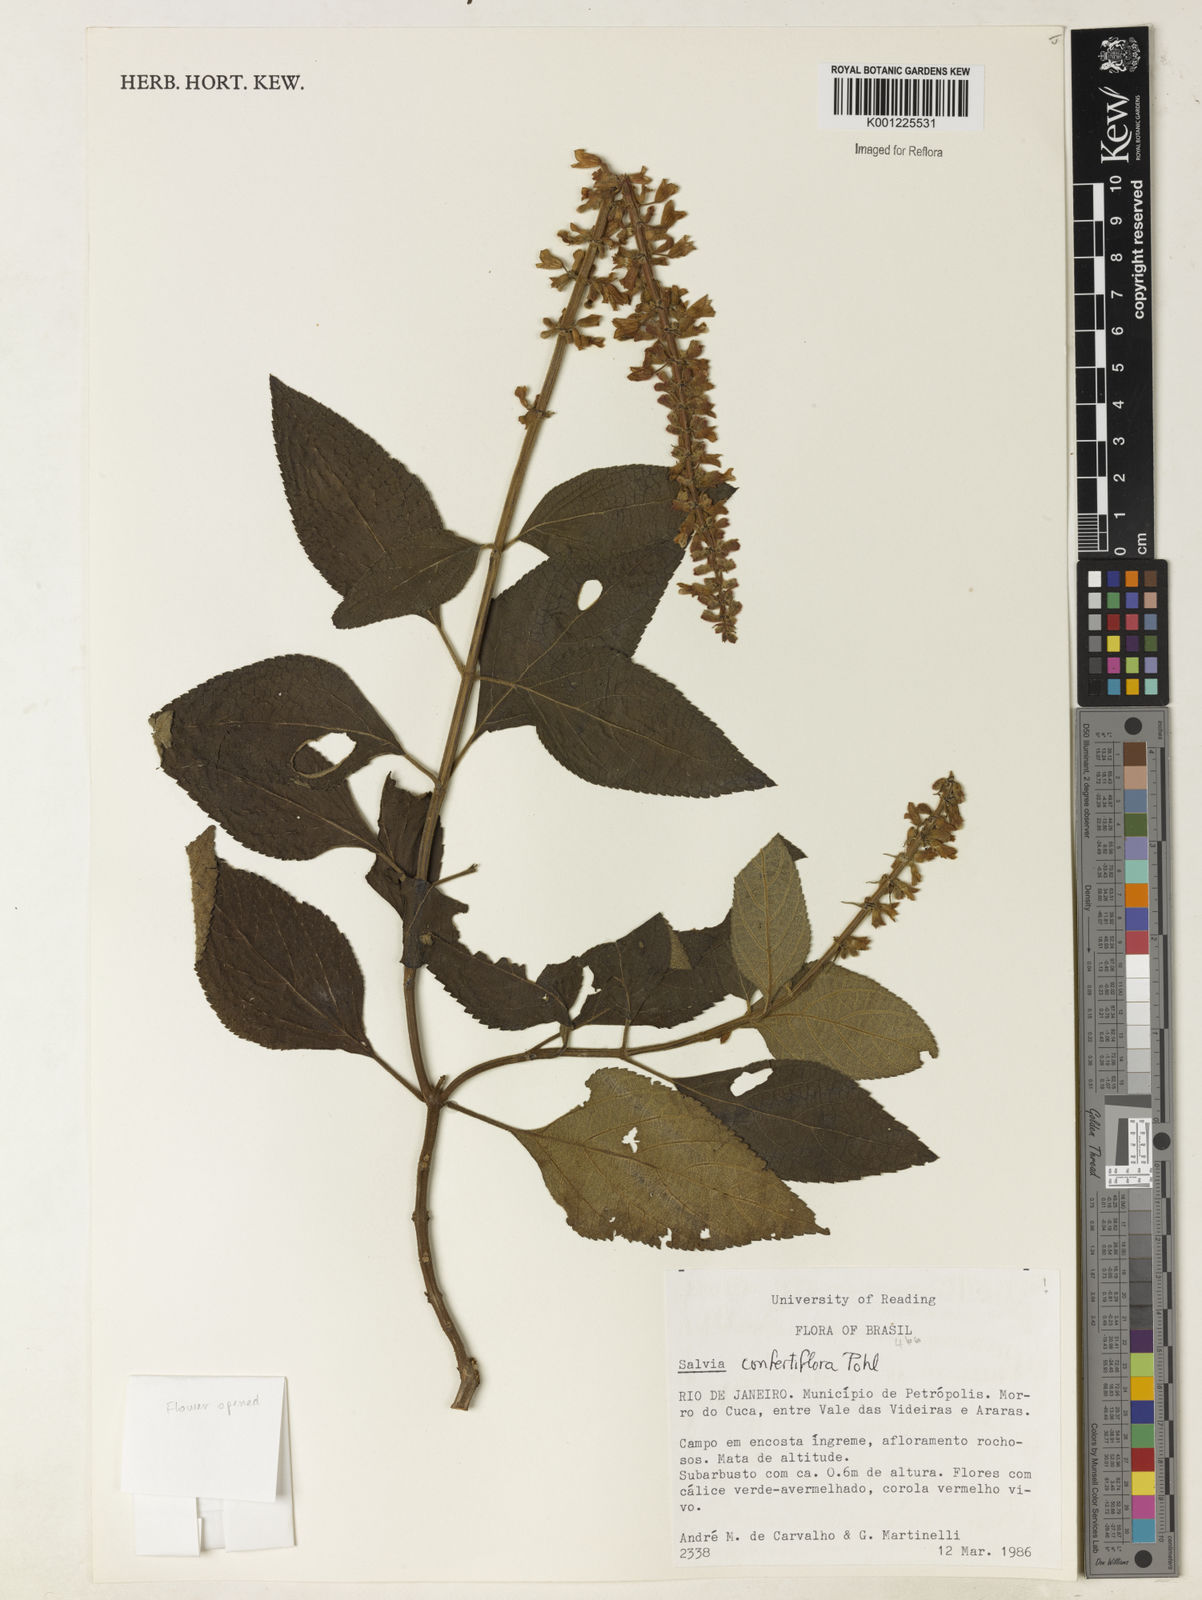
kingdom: Plantae
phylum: Tracheophyta
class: Magnoliopsida
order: Lamiales
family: Lamiaceae
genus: Salvia
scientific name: Salvia confertiflora
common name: Sabra-spike sage
